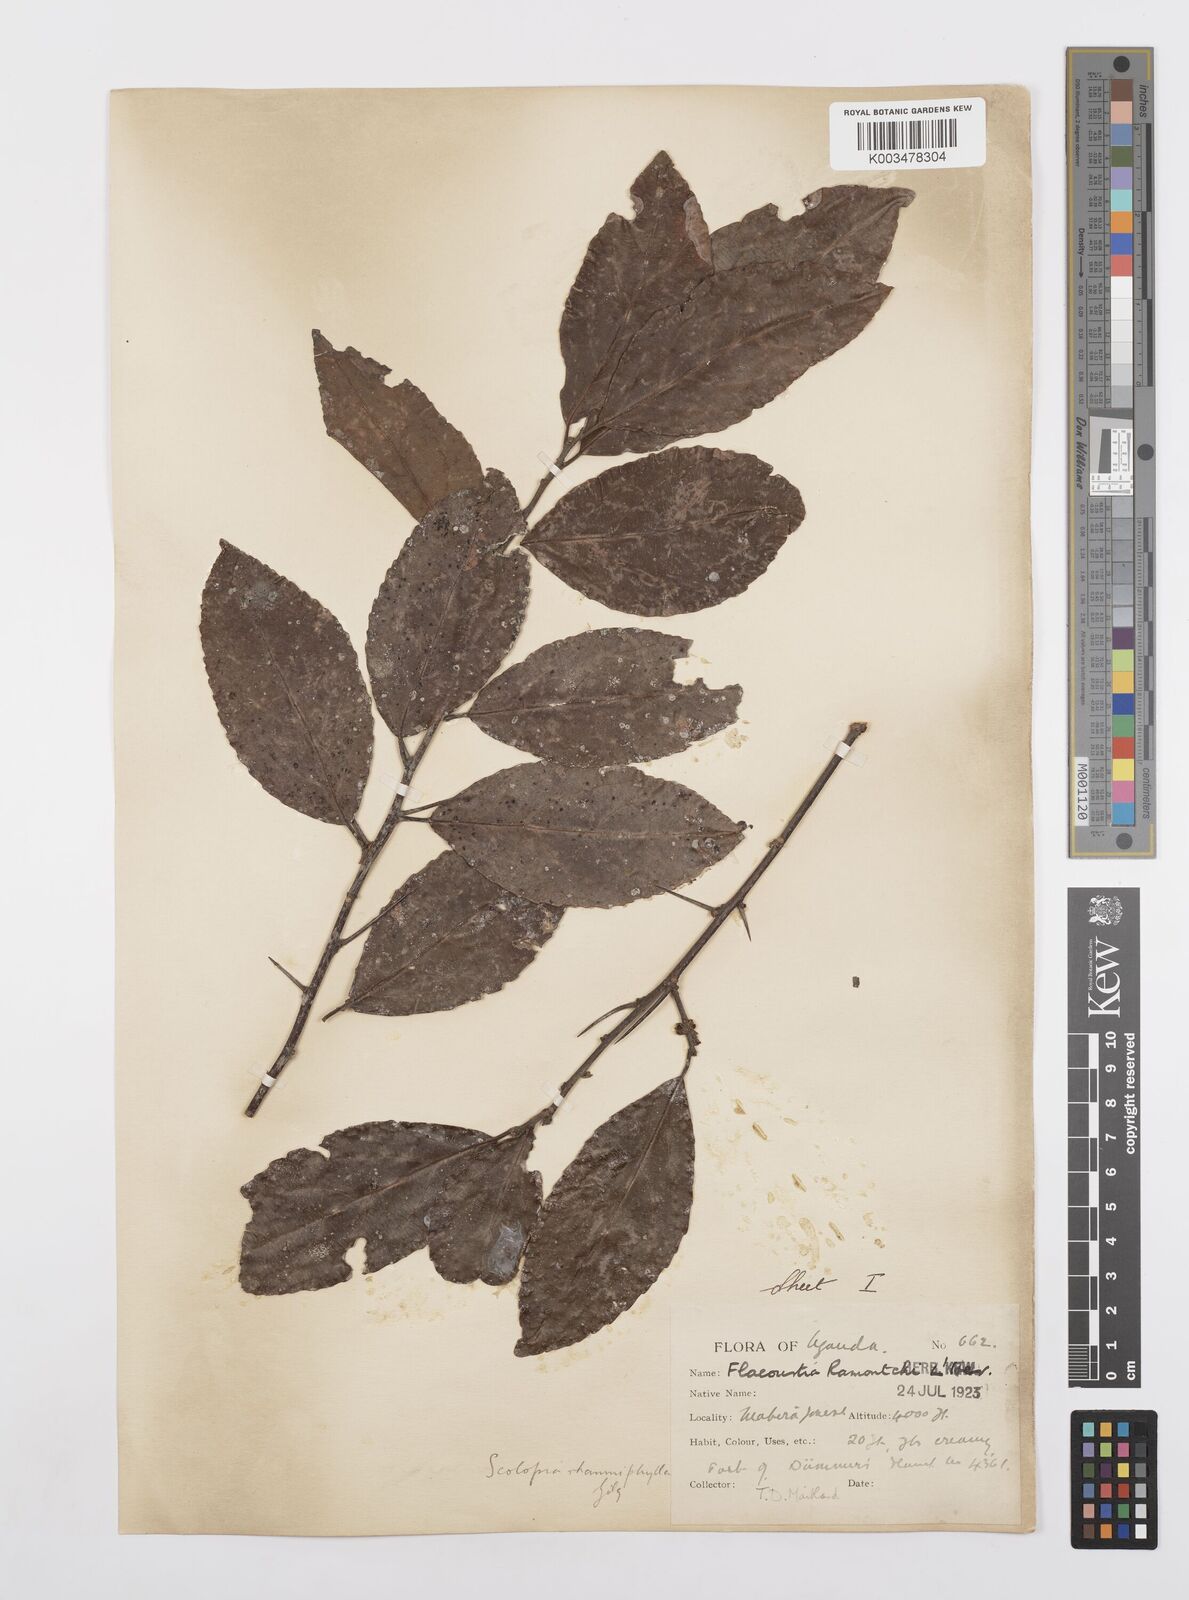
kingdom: Plantae
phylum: Tracheophyta
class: Magnoliopsida
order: Malpighiales
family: Salicaceae
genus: Scolopia
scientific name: Scolopia rhamniphylla
